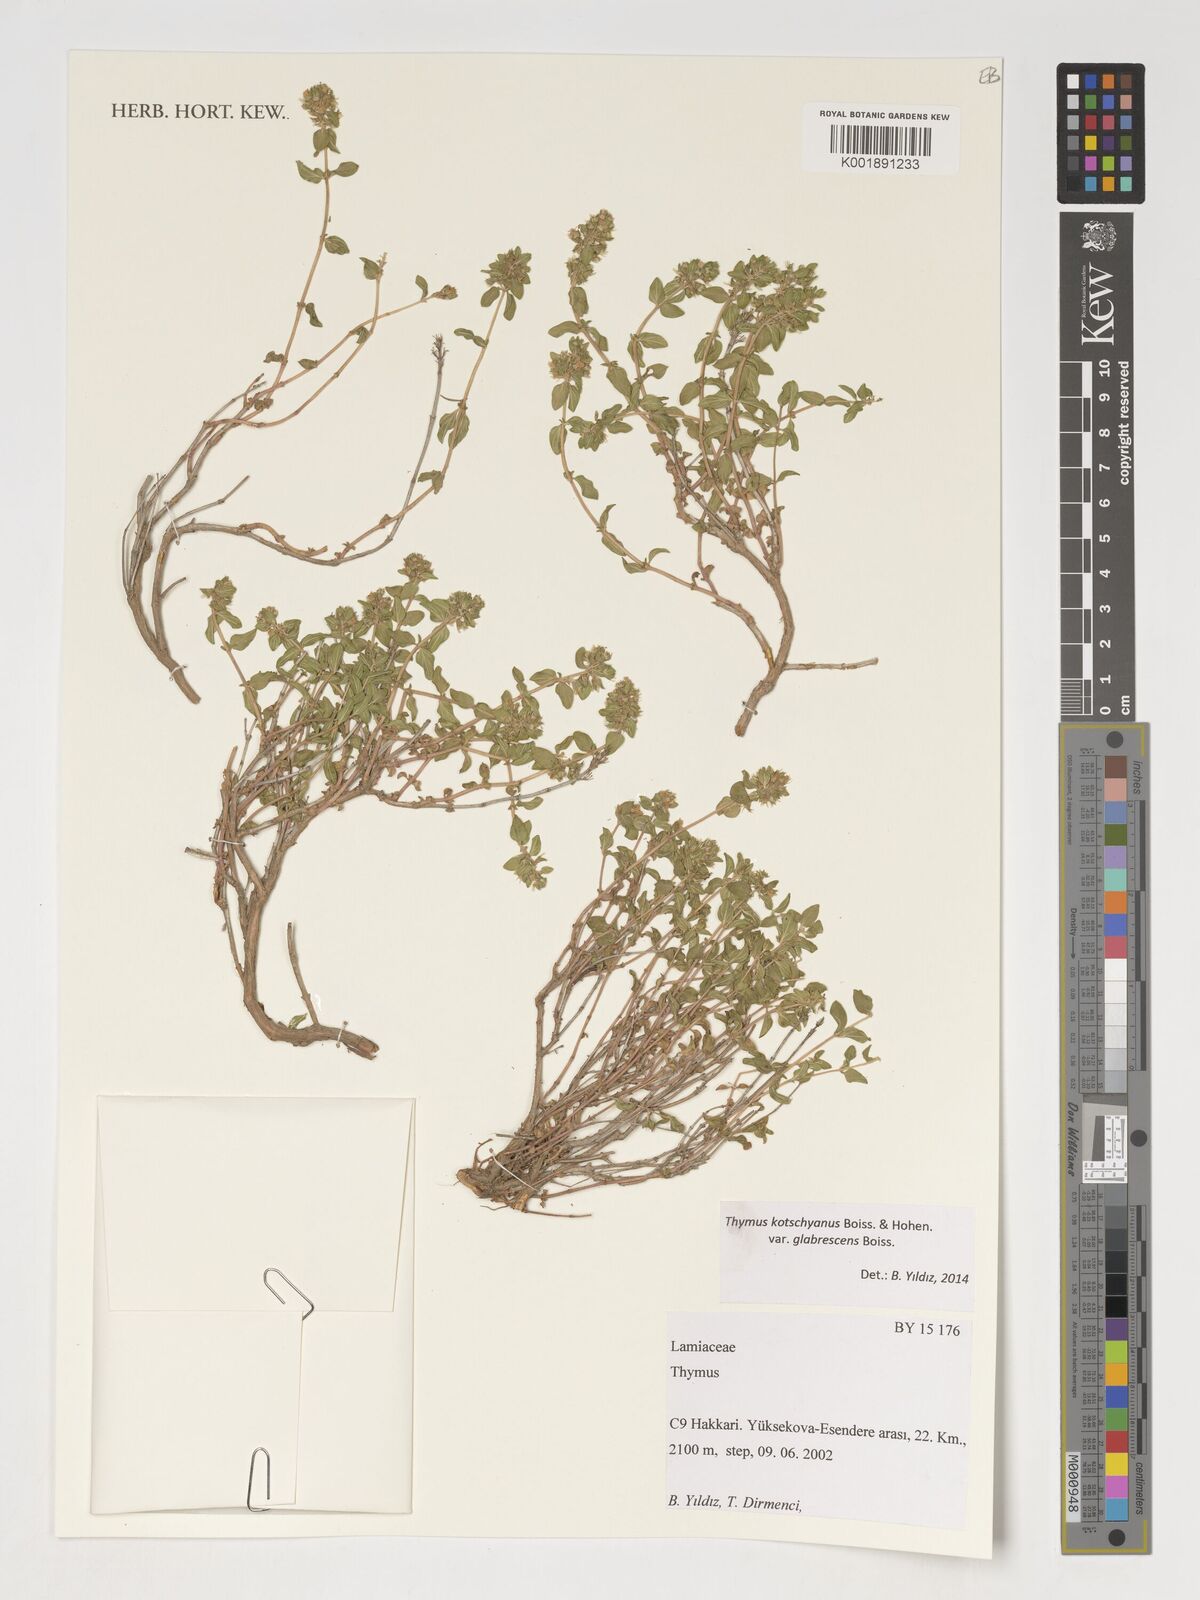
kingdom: Plantae
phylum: Tracheophyta
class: Magnoliopsida
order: Lamiales
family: Lamiaceae
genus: Thymus
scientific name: Thymus
